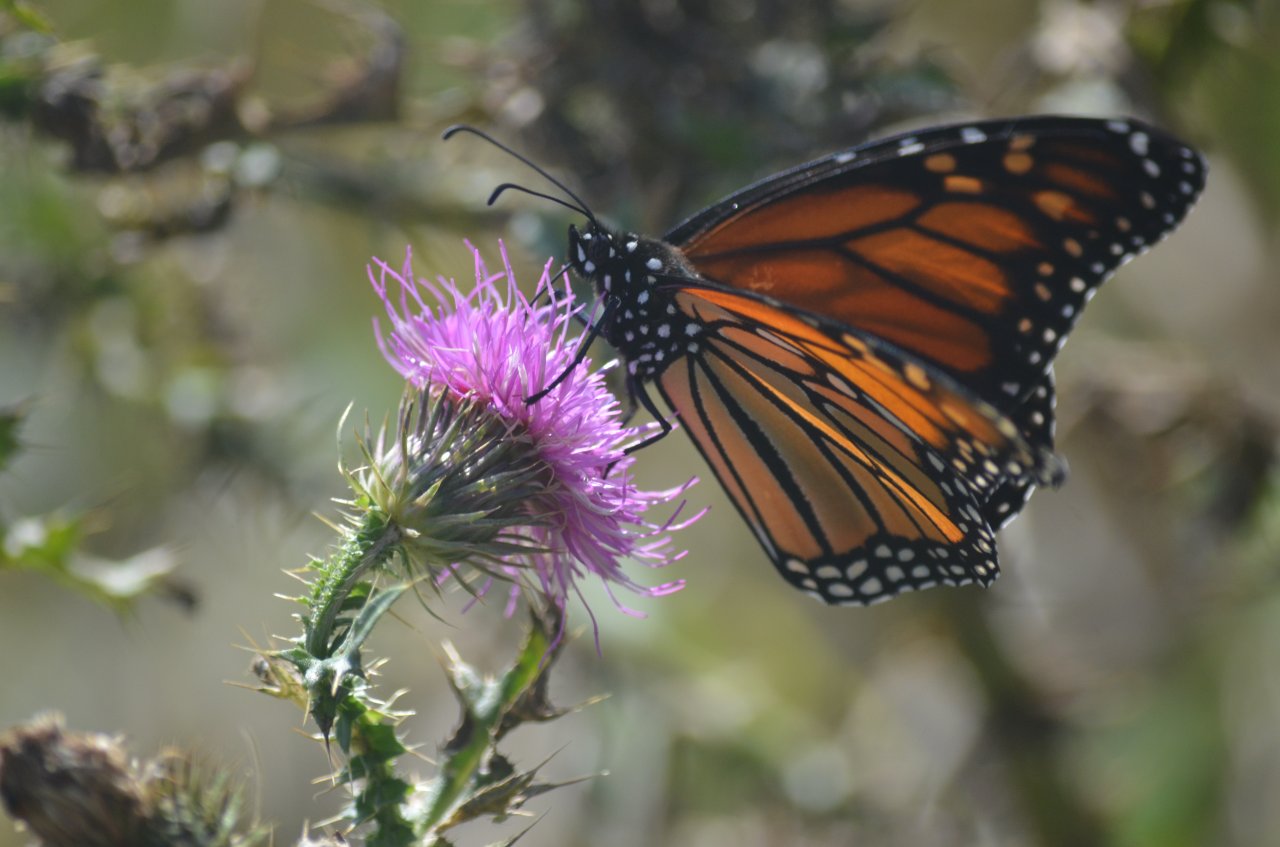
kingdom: Animalia
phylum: Arthropoda
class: Insecta
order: Lepidoptera
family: Nymphalidae
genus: Danaus
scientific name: Danaus plexippus
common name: Monarch
